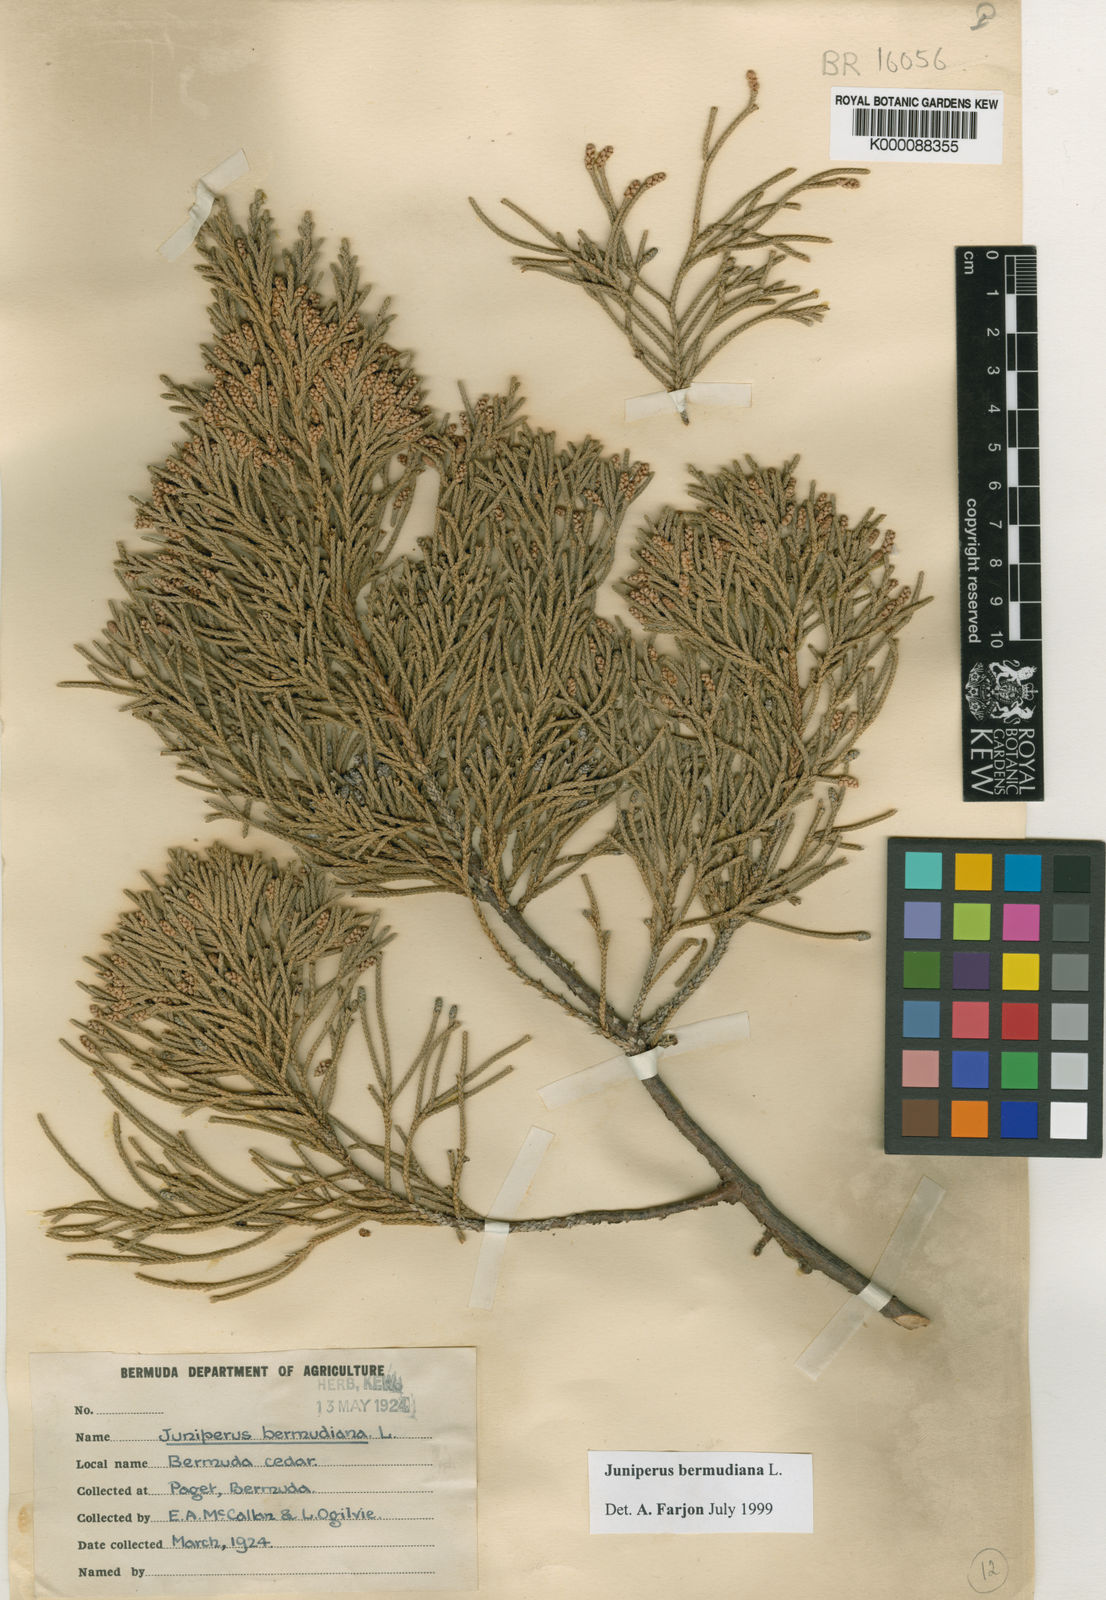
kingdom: Plantae
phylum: Tracheophyta
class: Pinopsida
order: Pinales
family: Cupressaceae
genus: Juniperus
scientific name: Juniperus bermudiana
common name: Bermuda juniper
